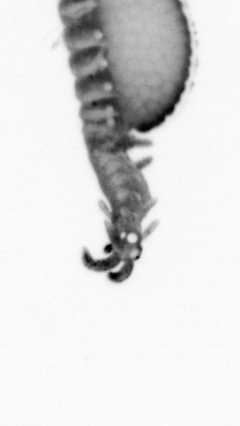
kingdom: Animalia
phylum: Annelida
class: Polychaeta
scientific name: Polychaeta
